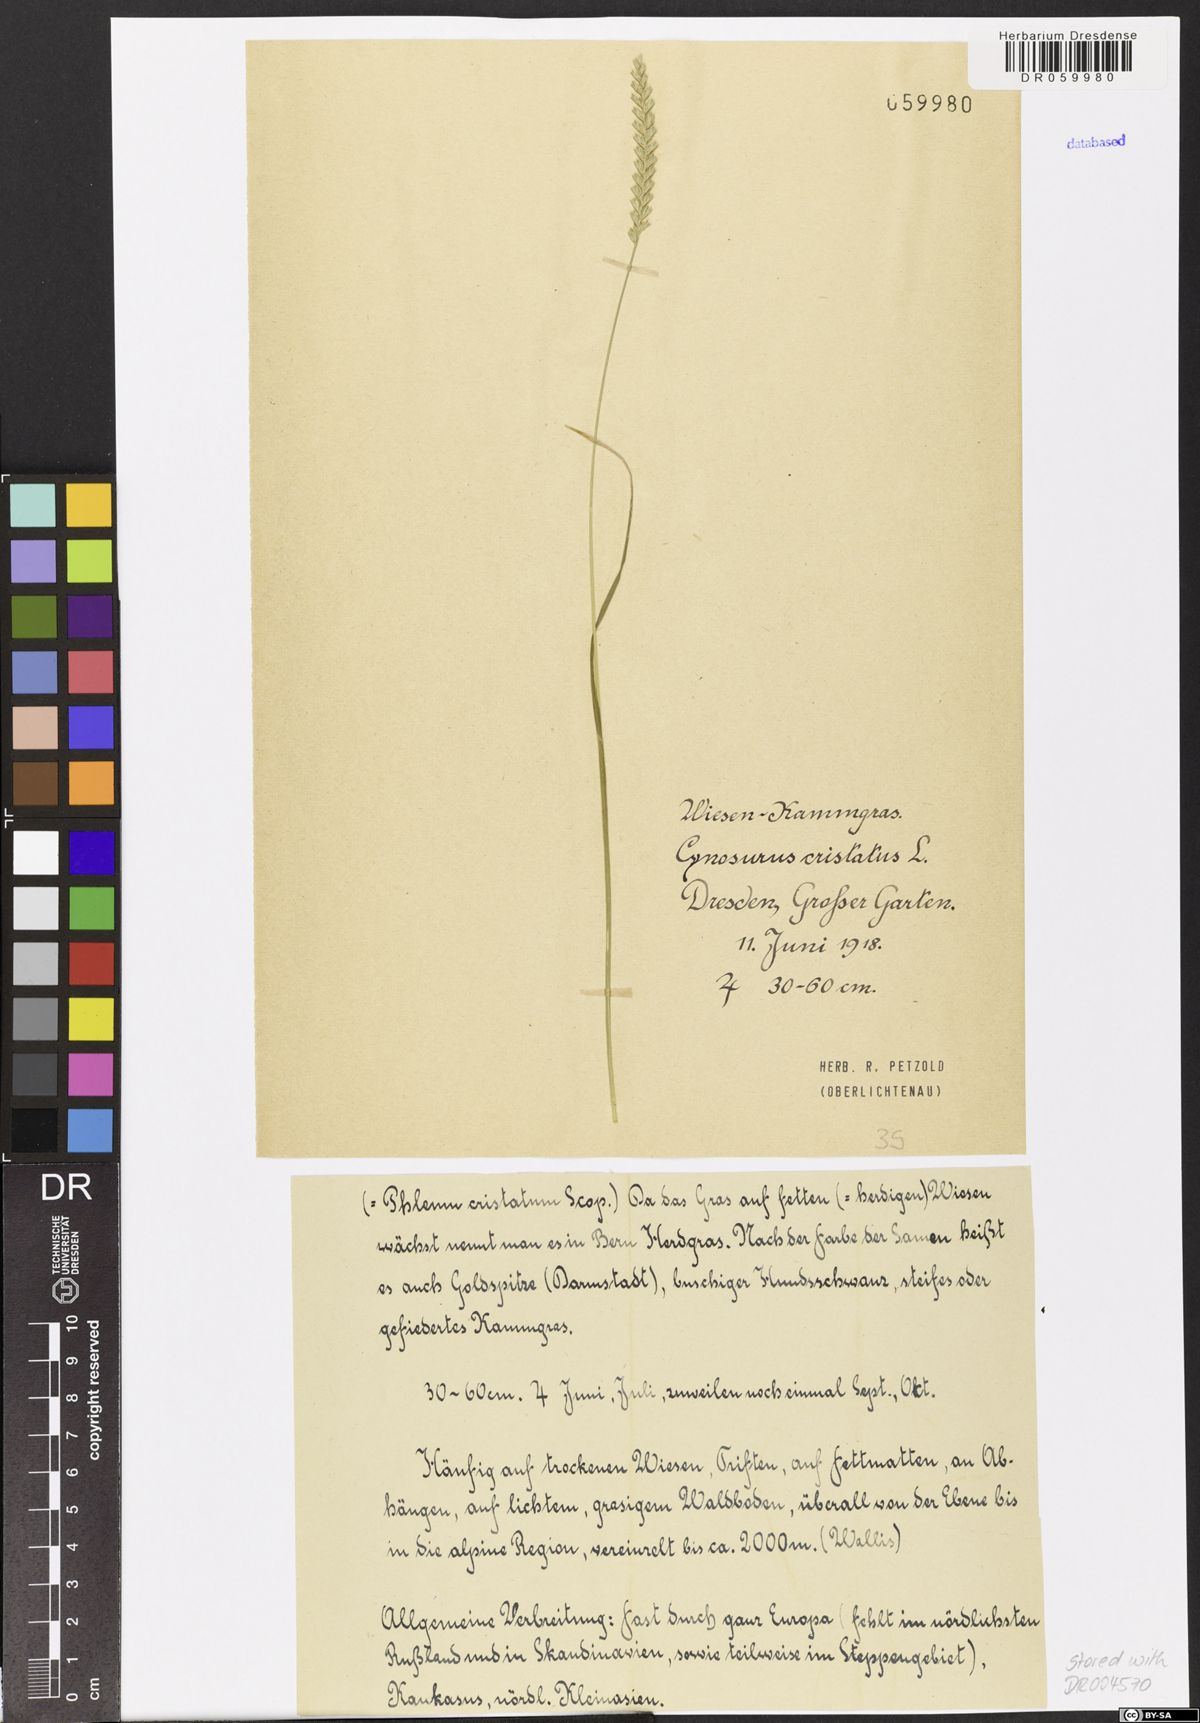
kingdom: Plantae
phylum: Tracheophyta
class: Liliopsida
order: Poales
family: Poaceae
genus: Cynosurus
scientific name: Cynosurus cristatus
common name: Crested dog's-tail
